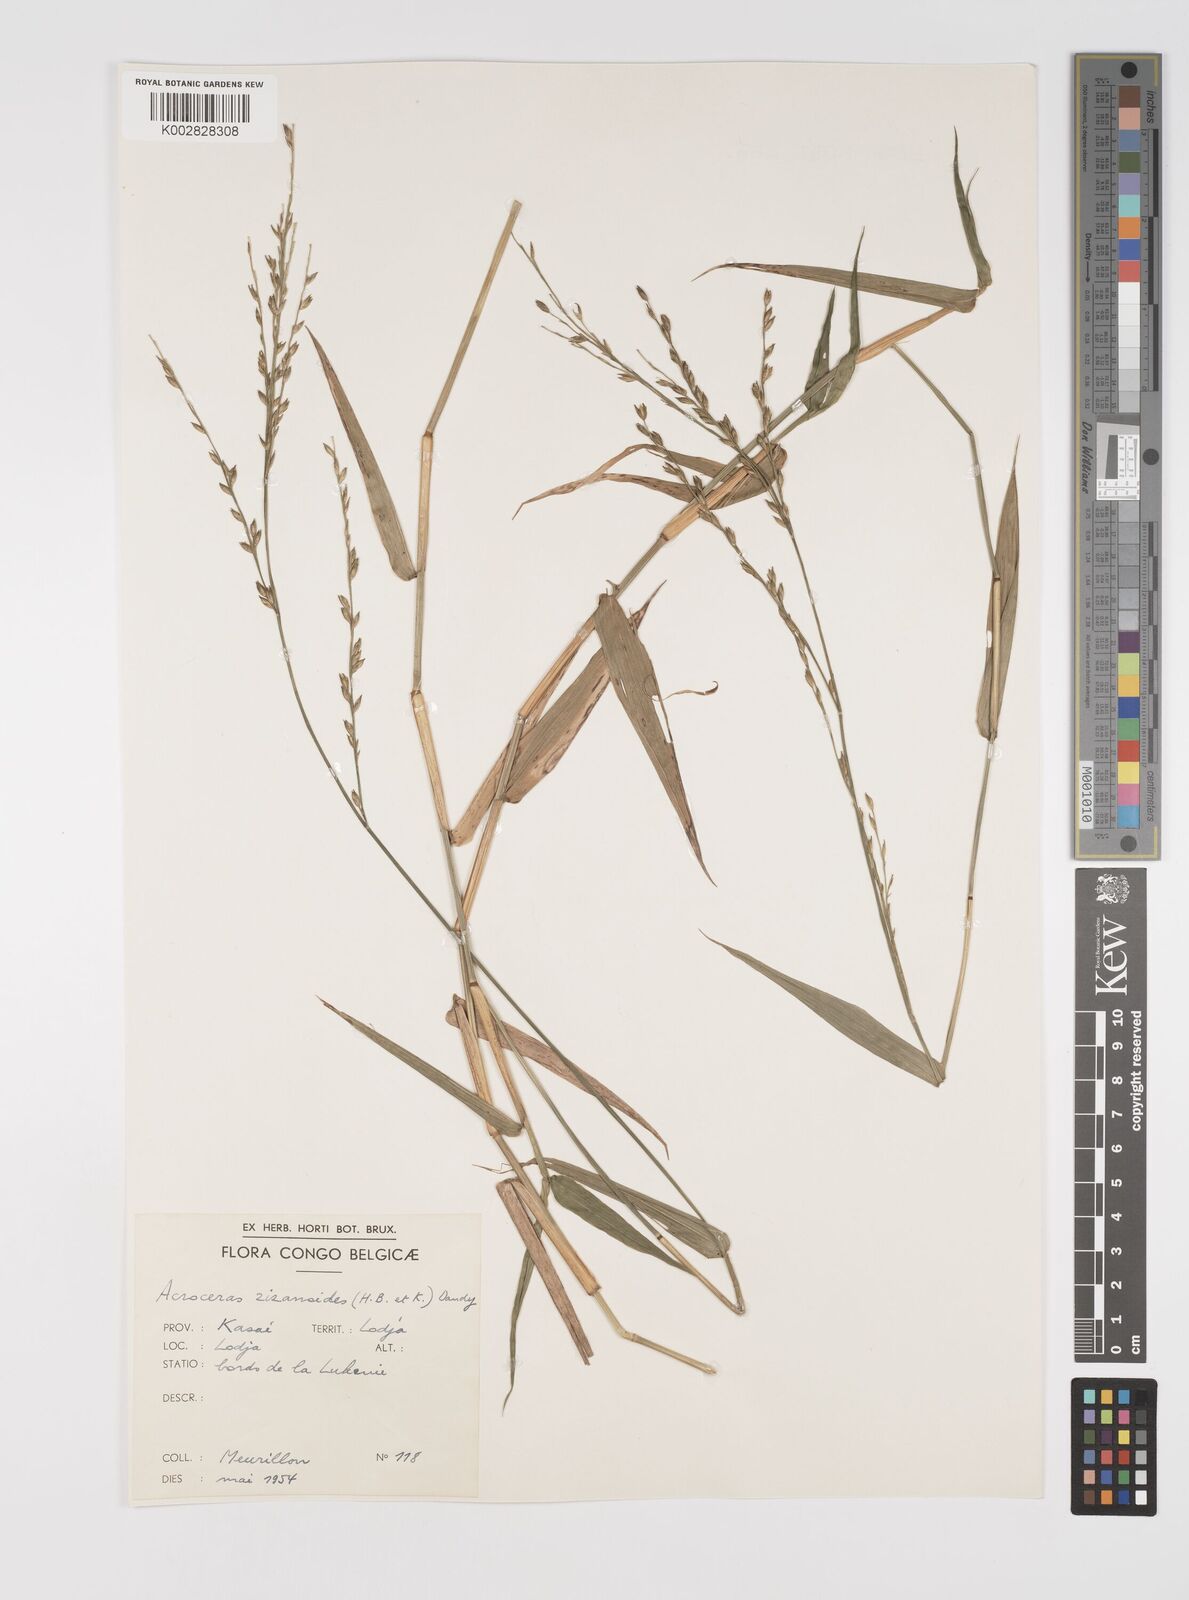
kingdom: Plantae
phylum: Tracheophyta
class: Liliopsida
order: Poales
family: Poaceae
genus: Acroceras
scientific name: Acroceras zizanioides
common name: Oat grass
